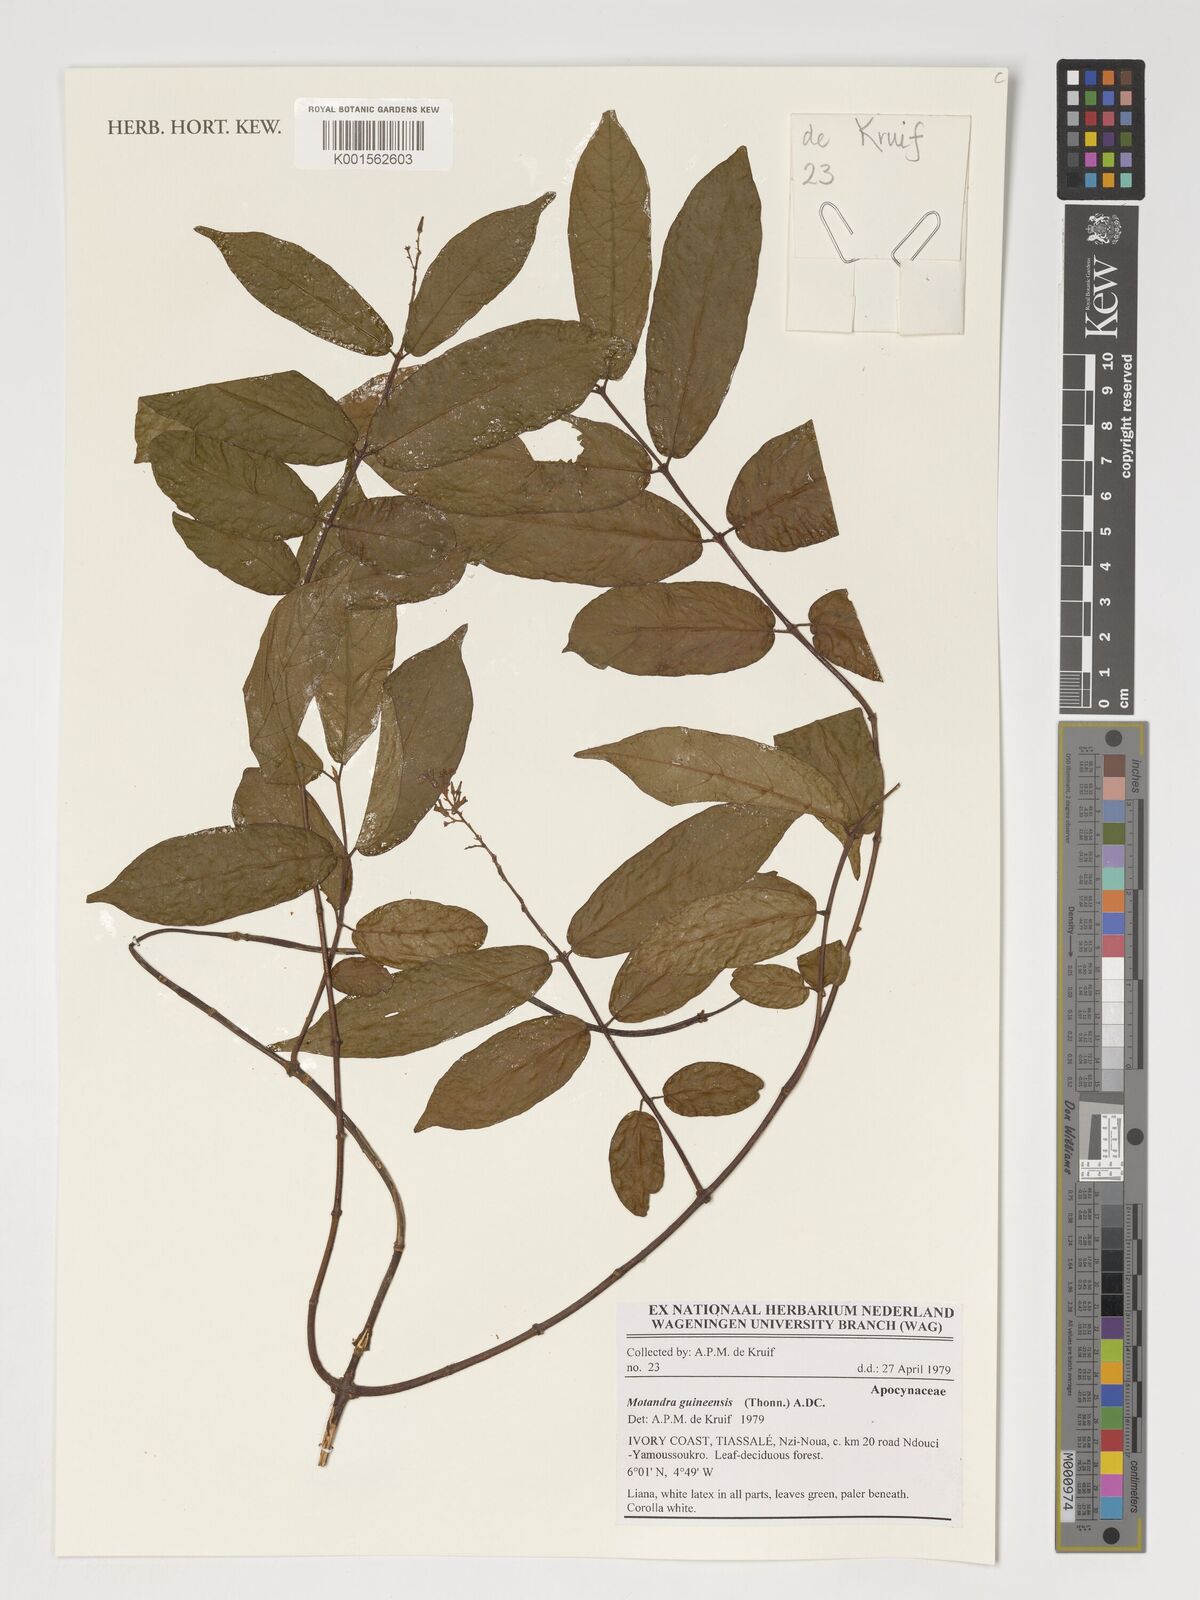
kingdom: Plantae
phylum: Tracheophyta
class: Magnoliopsida
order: Gentianales
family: Apocynaceae
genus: Motandra
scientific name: Motandra paniculata
